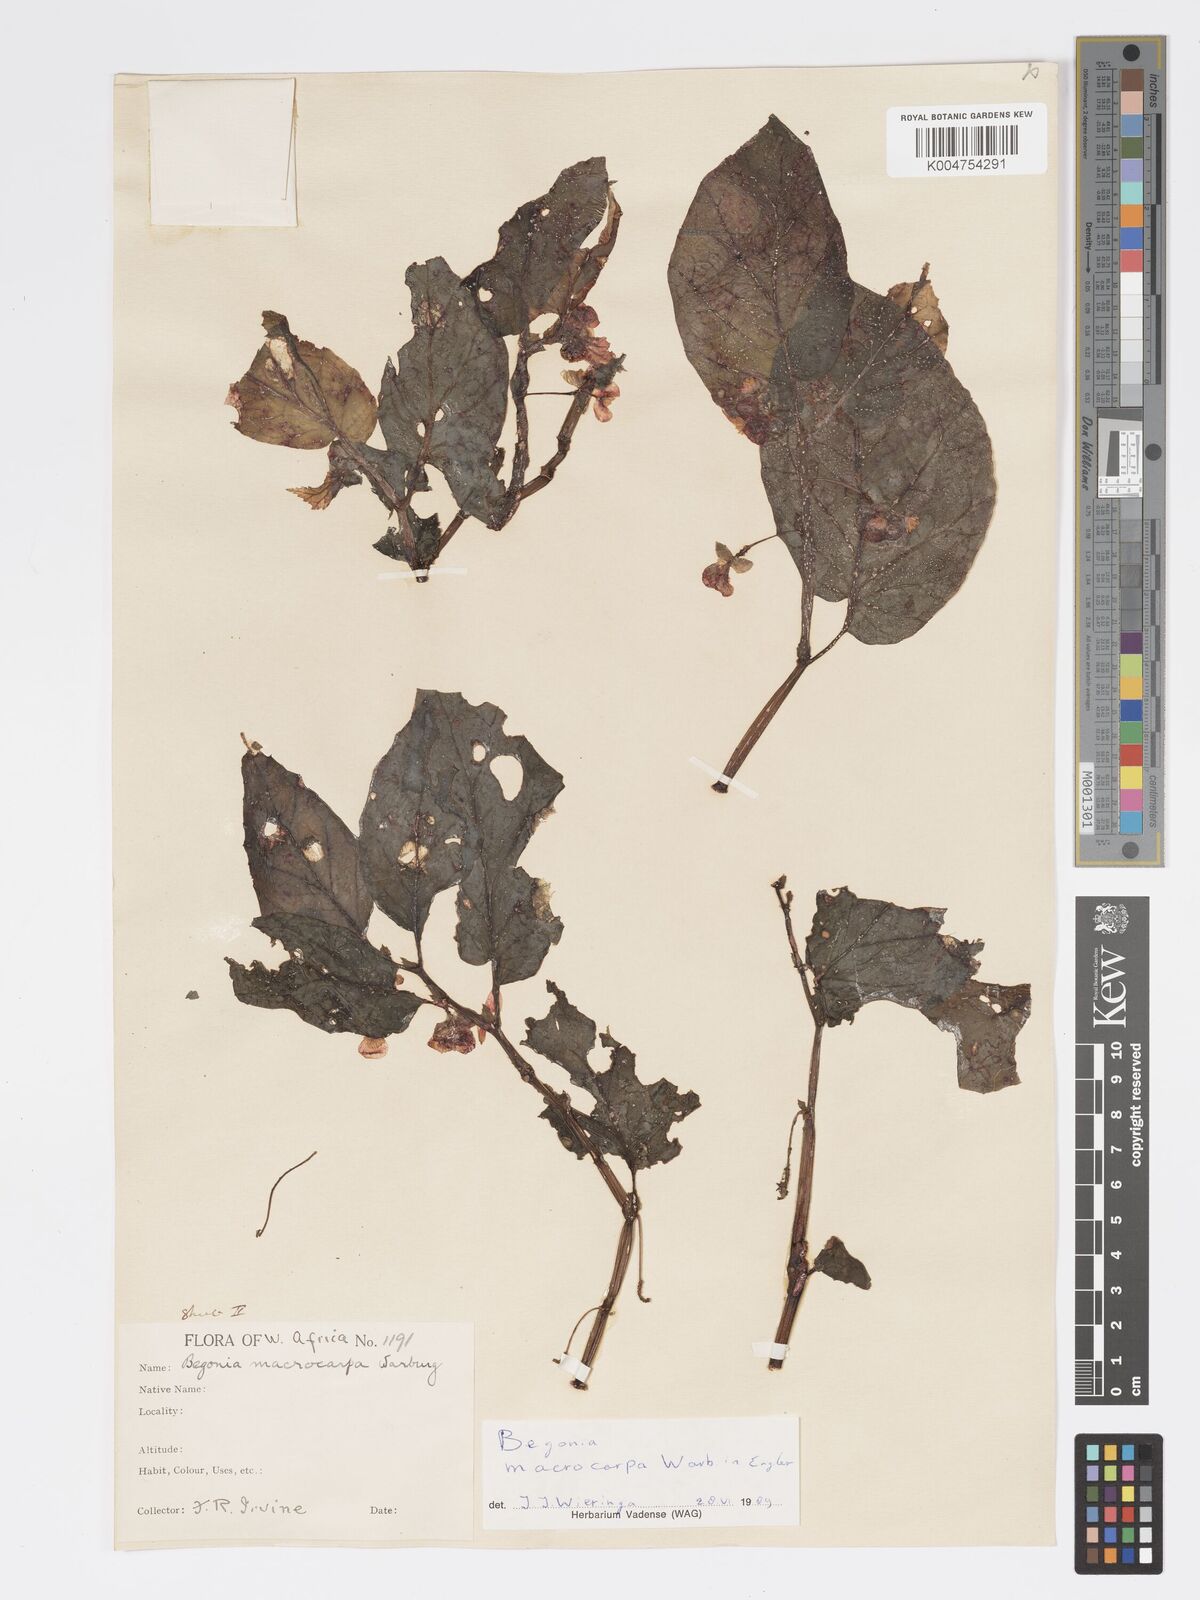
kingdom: Plantae
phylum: Tracheophyta
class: Magnoliopsida
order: Cucurbitales
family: Begoniaceae
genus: Begonia
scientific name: Begonia macrocarpa
